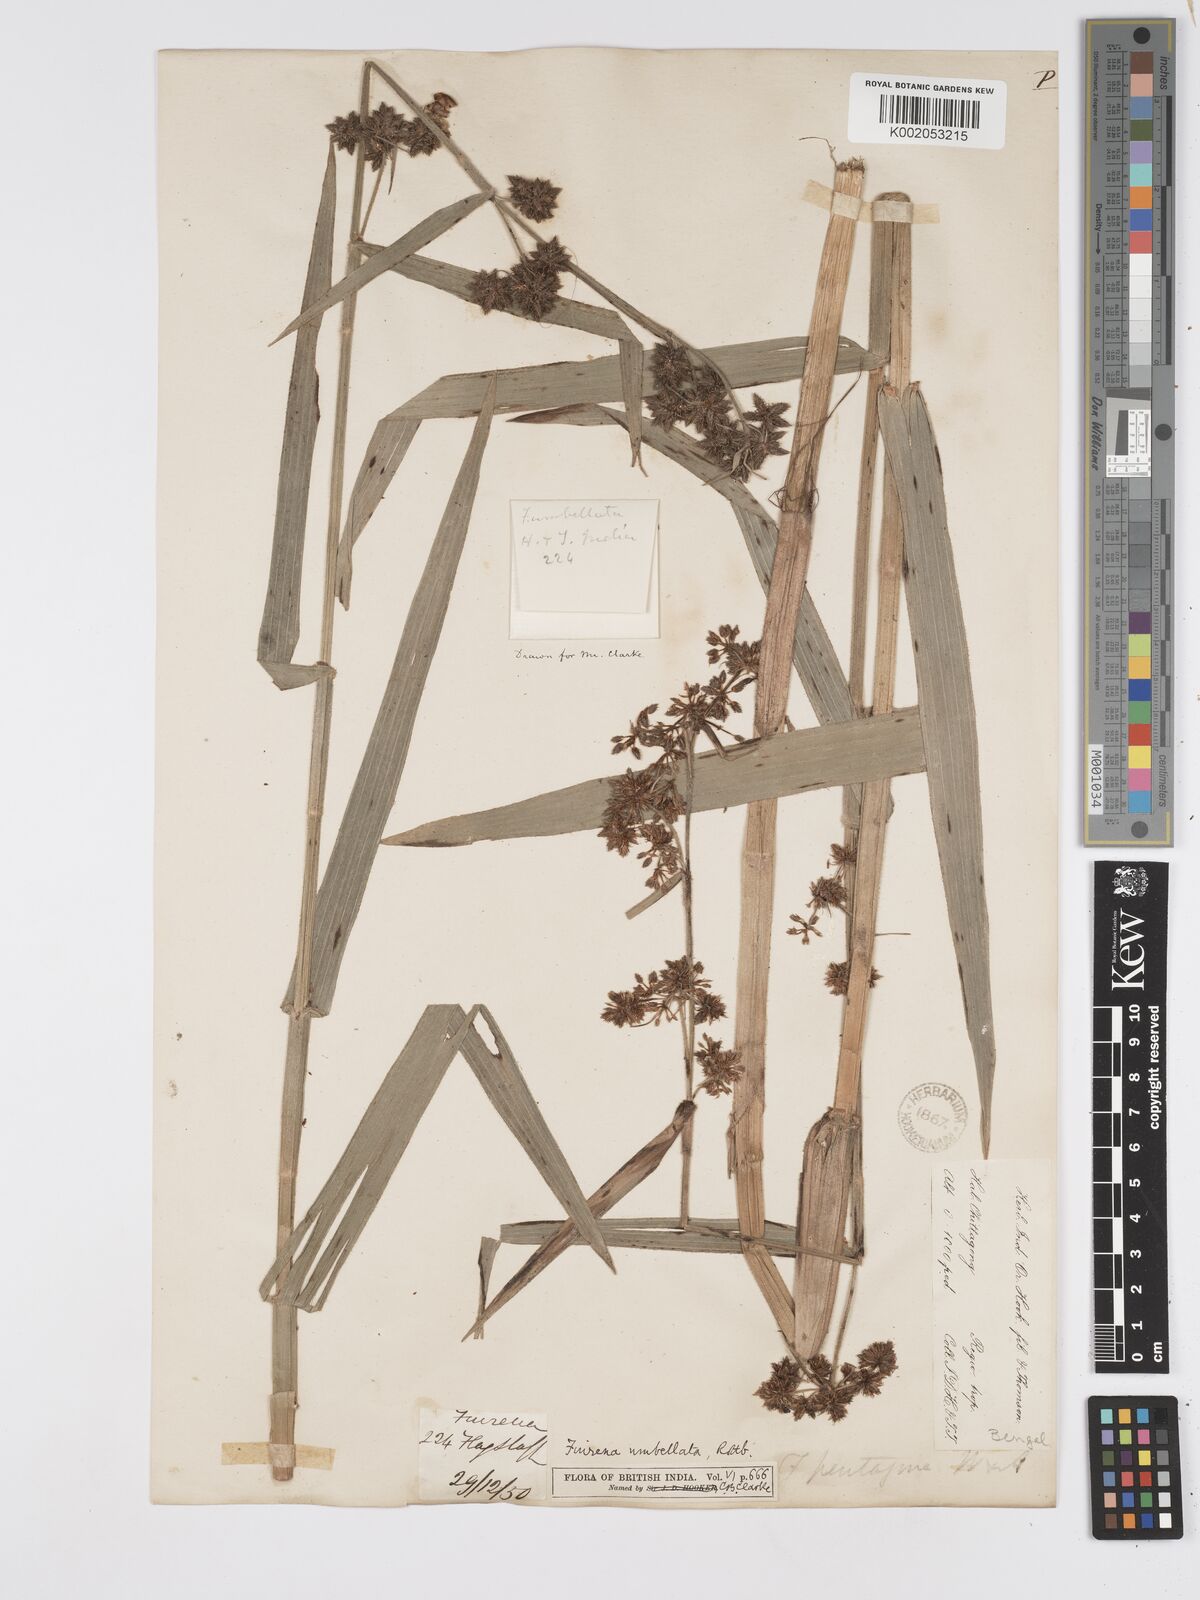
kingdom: Plantae
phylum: Tracheophyta
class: Liliopsida
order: Poales
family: Cyperaceae
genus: Fuirena
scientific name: Fuirena umbellata
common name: Yefen
